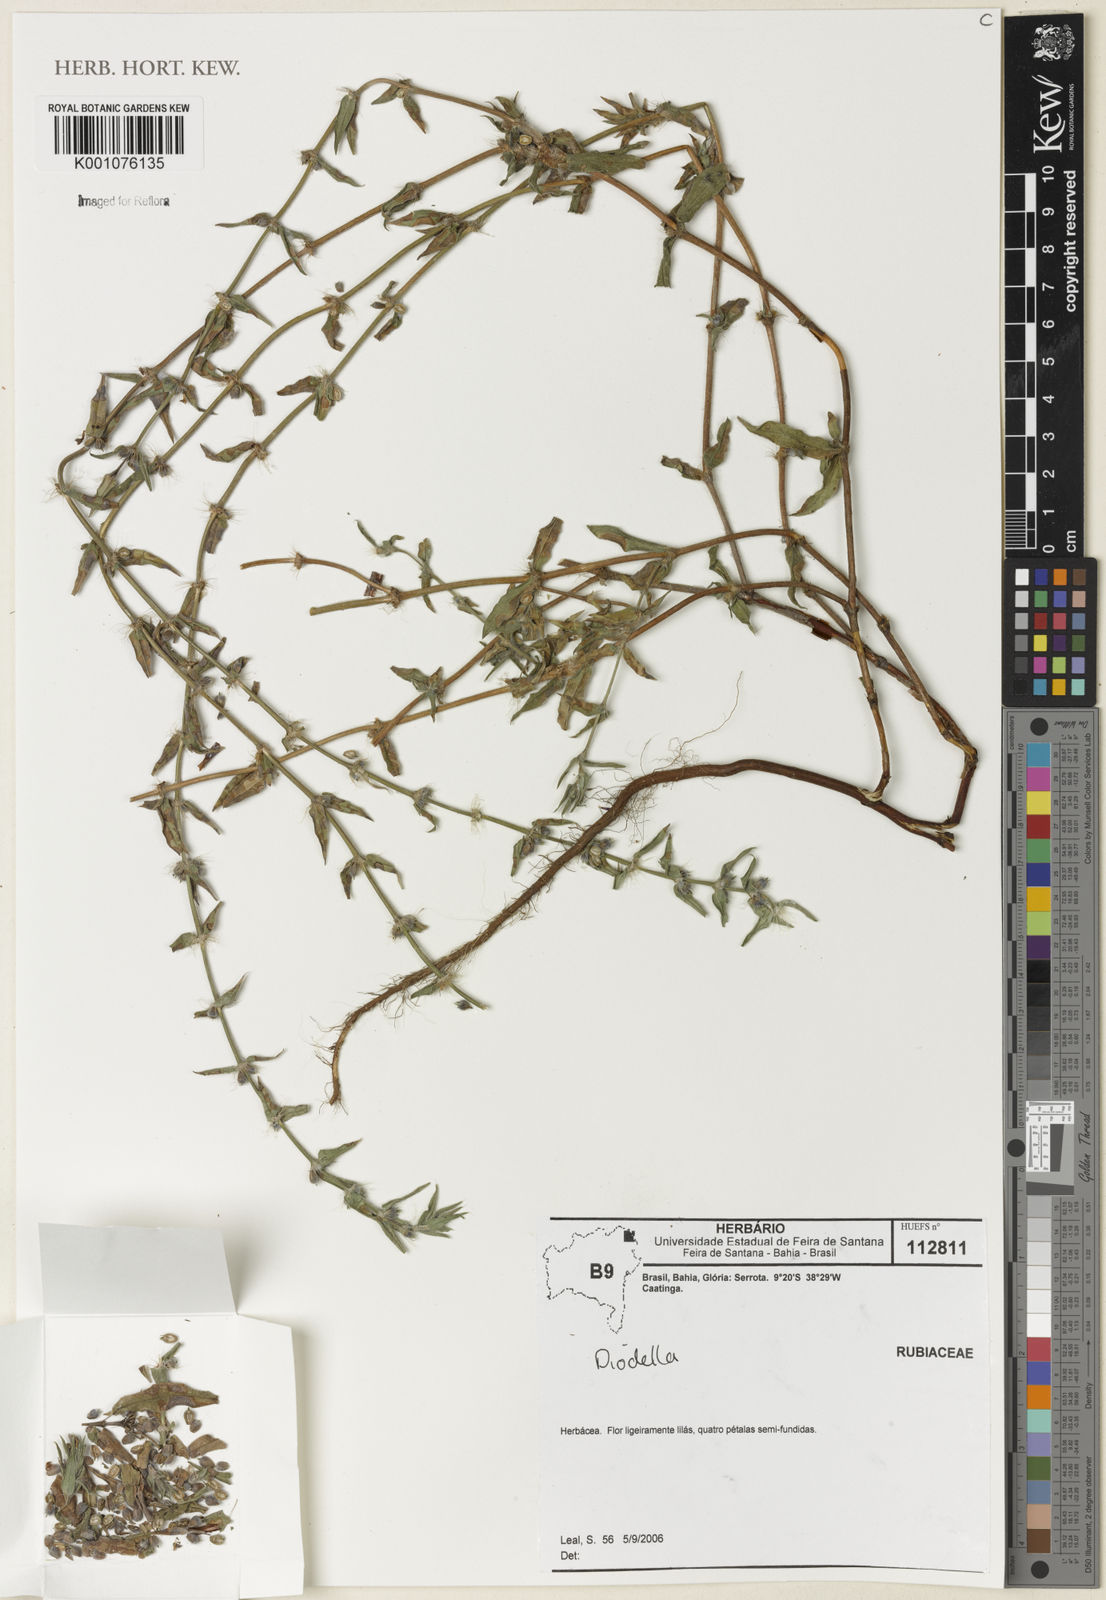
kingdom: Plantae
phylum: Tracheophyta
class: Magnoliopsida
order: Gentianales
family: Rubiaceae
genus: Hexasepalum
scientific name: Hexasepalum
